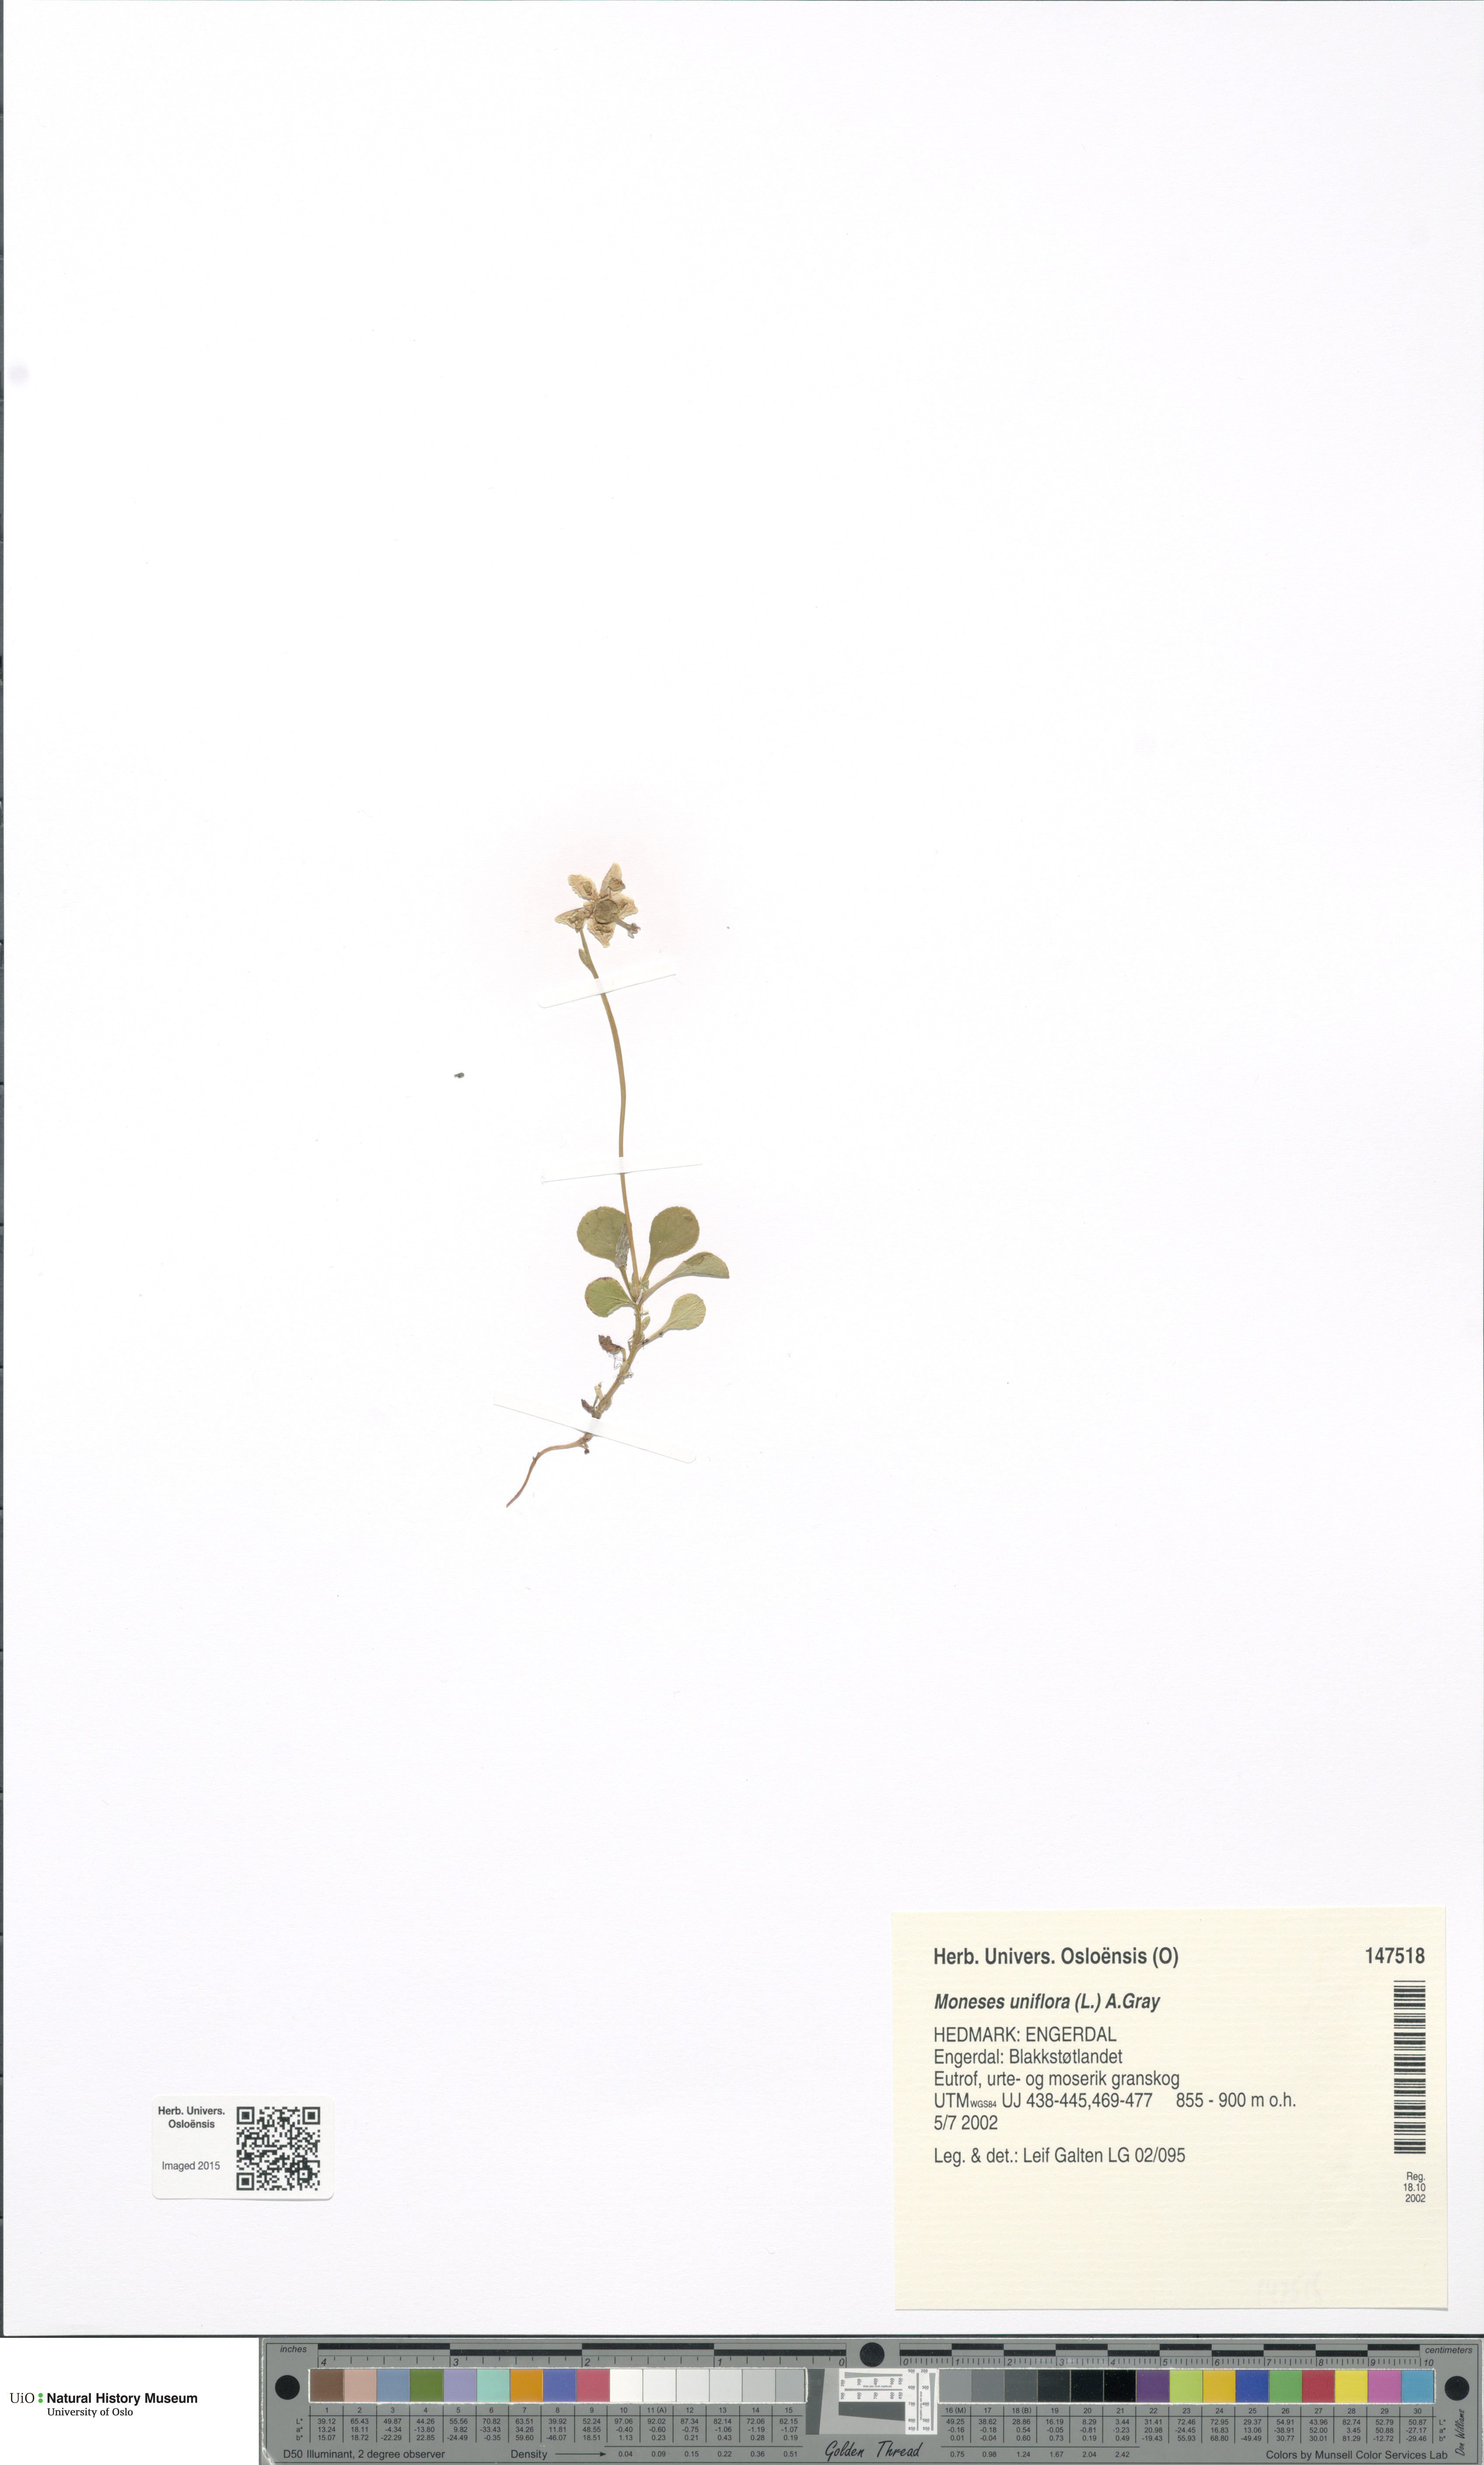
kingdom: Plantae
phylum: Tracheophyta
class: Magnoliopsida
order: Ericales
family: Ericaceae
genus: Moneses
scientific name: Moneses uniflora
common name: One-flowered wintergreen
